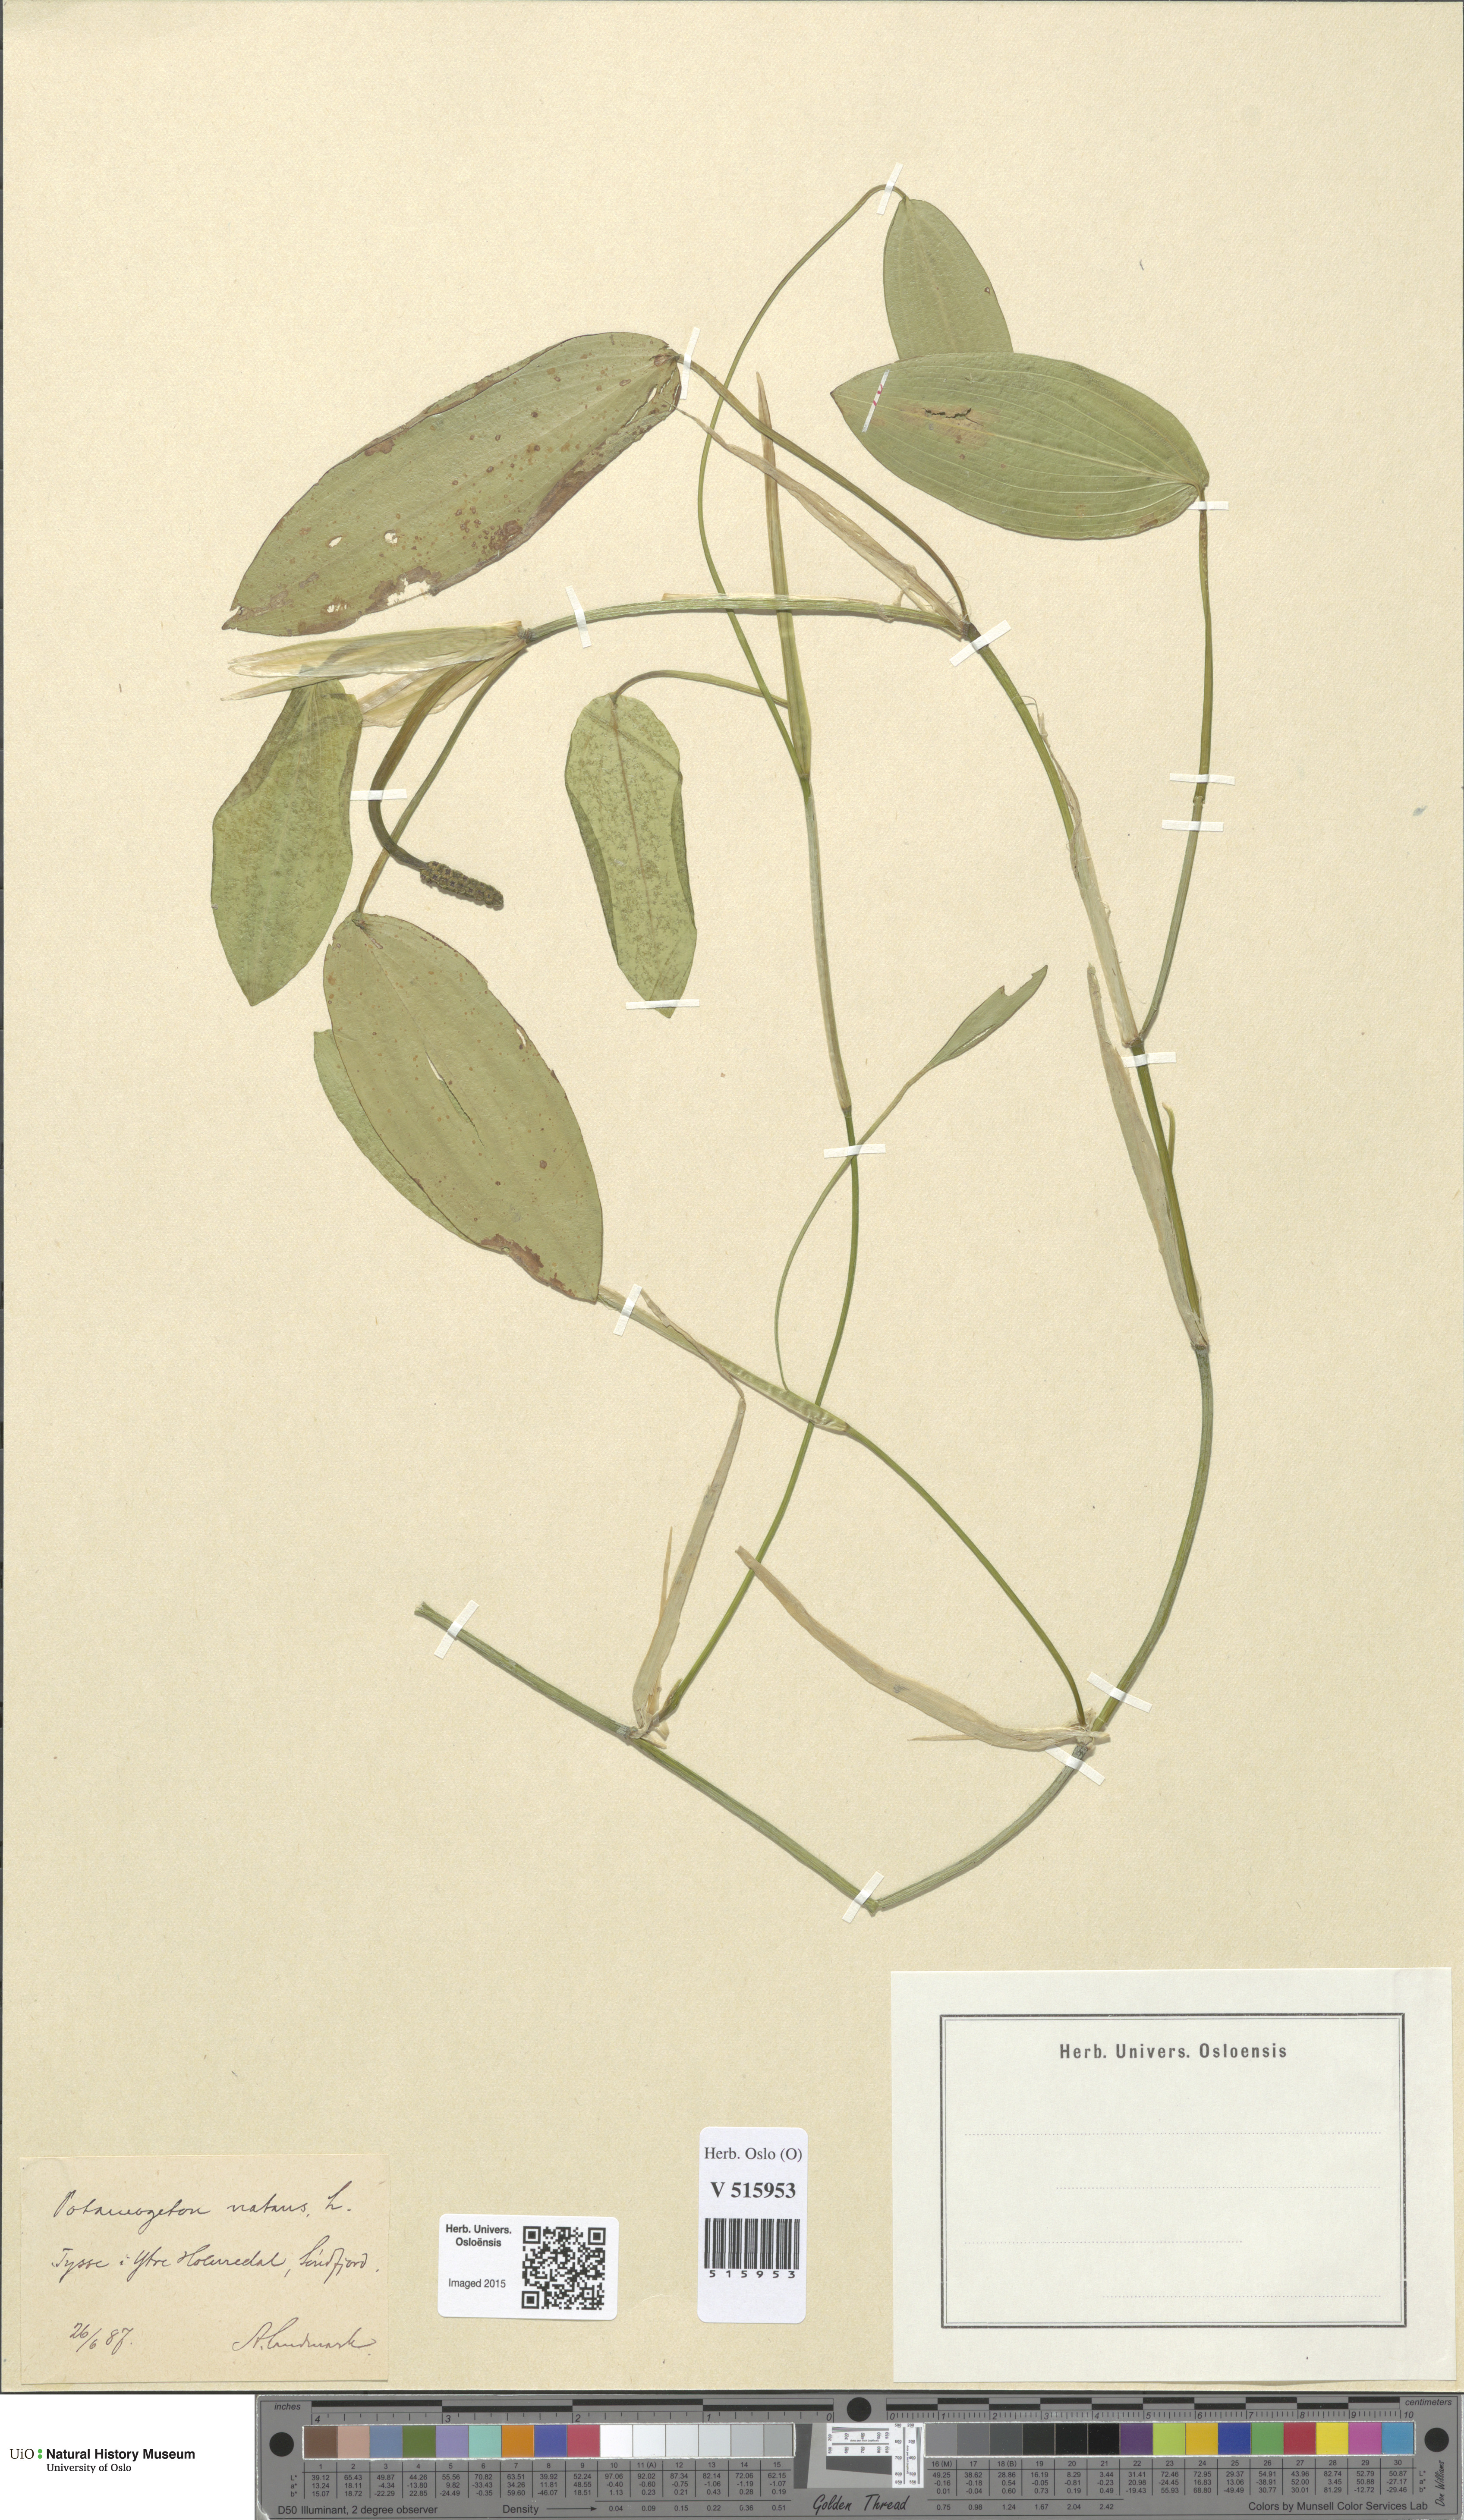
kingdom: Plantae
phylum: Tracheophyta
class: Liliopsida
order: Alismatales
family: Potamogetonaceae
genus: Potamogeton
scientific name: Potamogeton natans
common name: Broad-leaved pondweed
